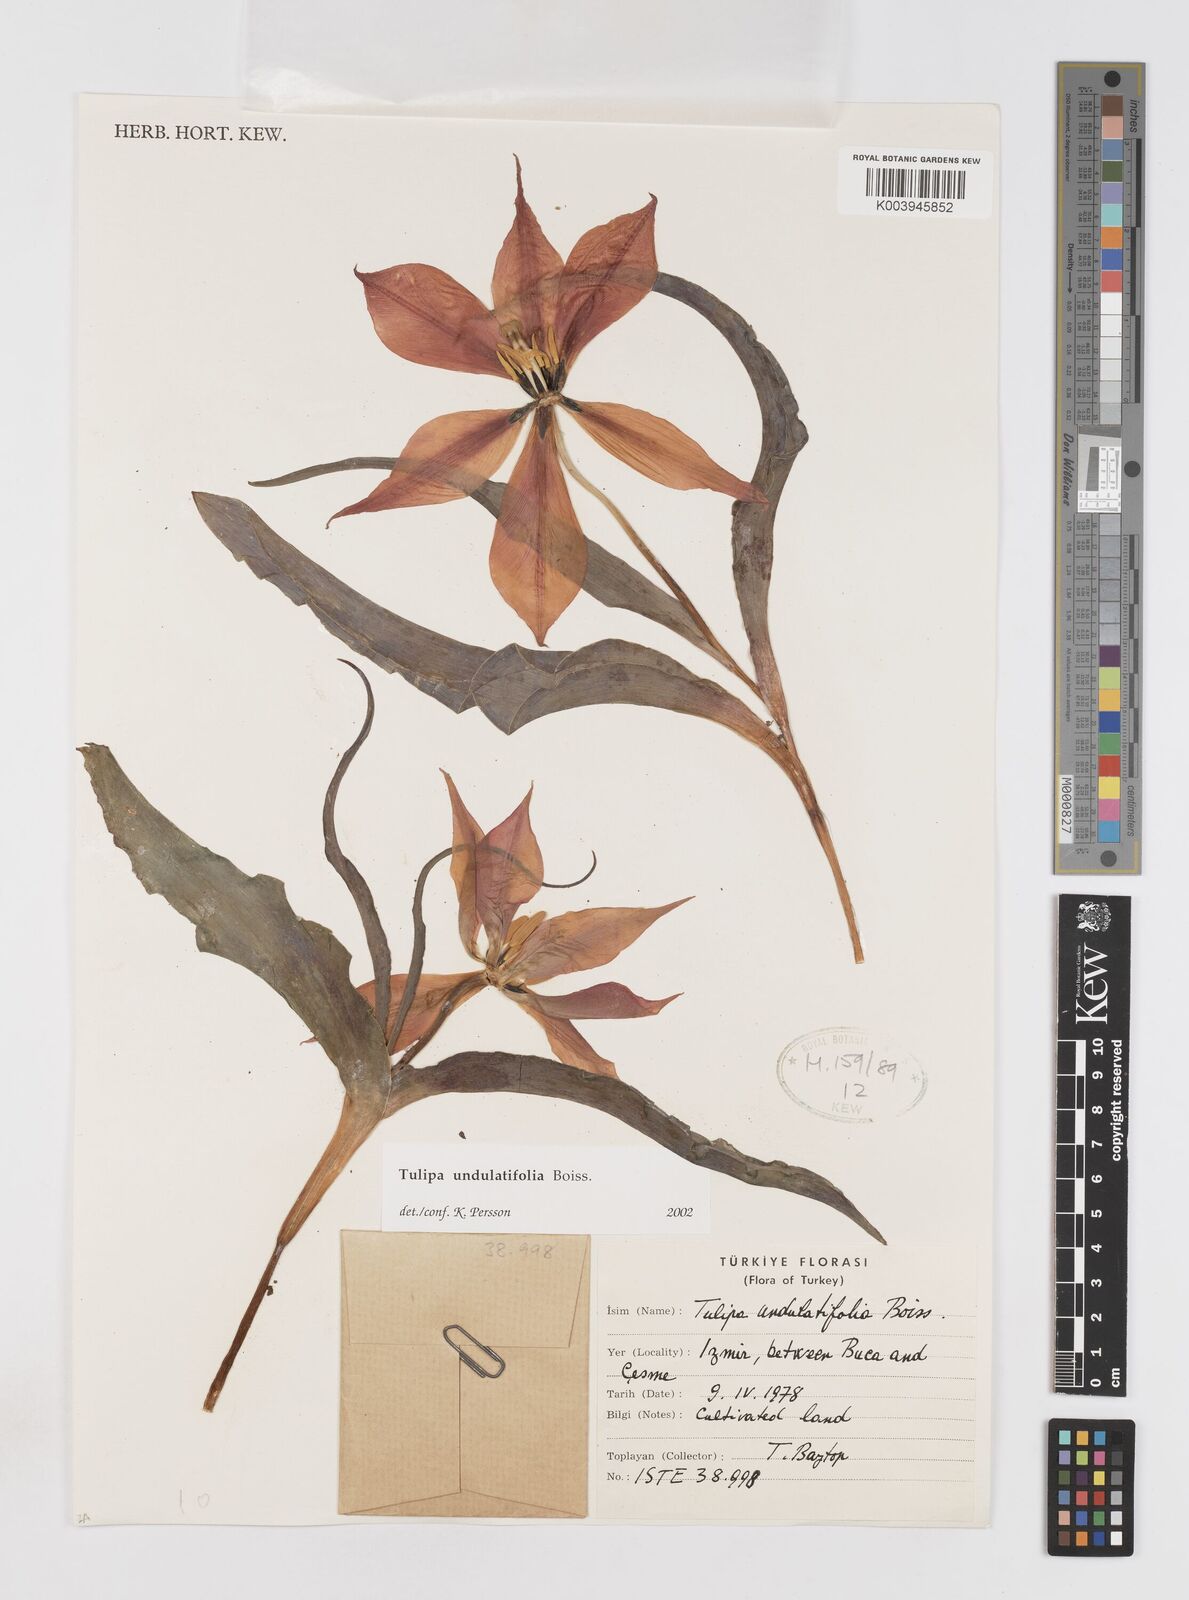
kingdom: Plantae
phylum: Tracheophyta
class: Liliopsida
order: Liliales
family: Liliaceae
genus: Tulipa
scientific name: Tulipa undulatifolia
